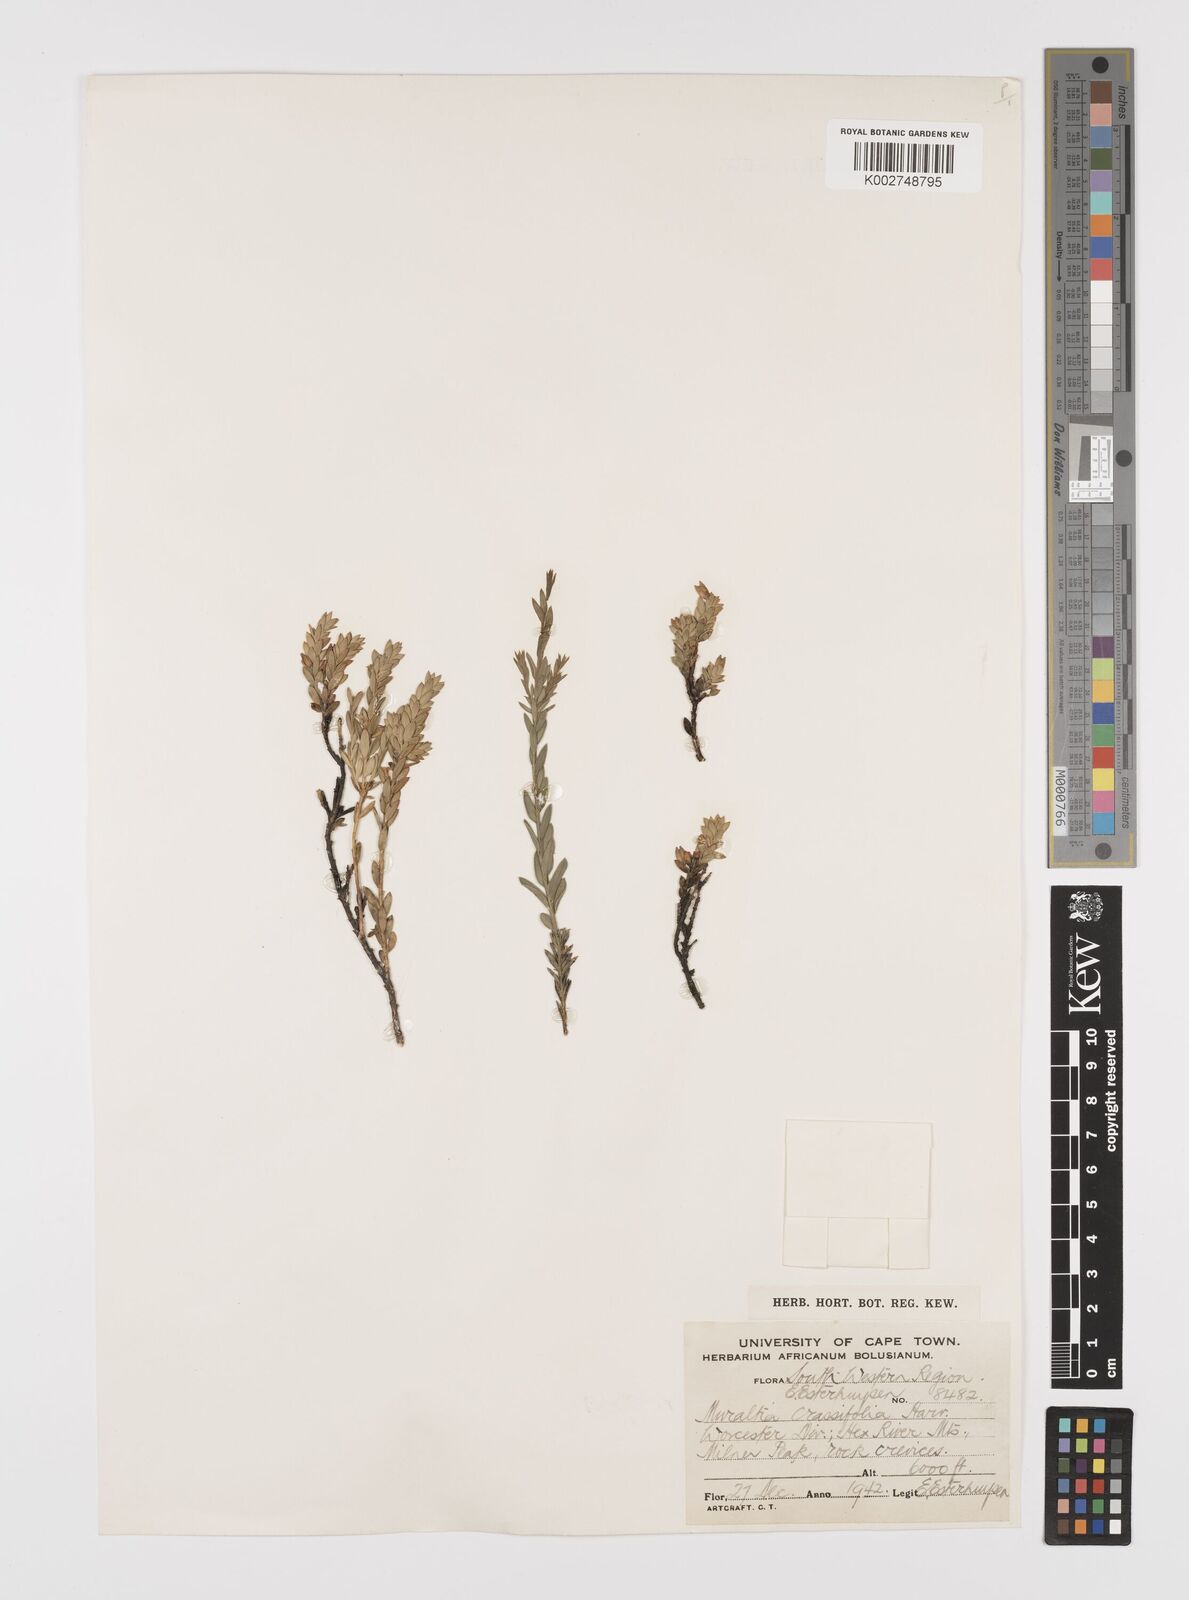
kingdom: Plantae
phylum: Tracheophyta
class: Magnoliopsida
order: Fabales
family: Polygalaceae
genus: Muraltia
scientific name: Muraltia crassifolia
